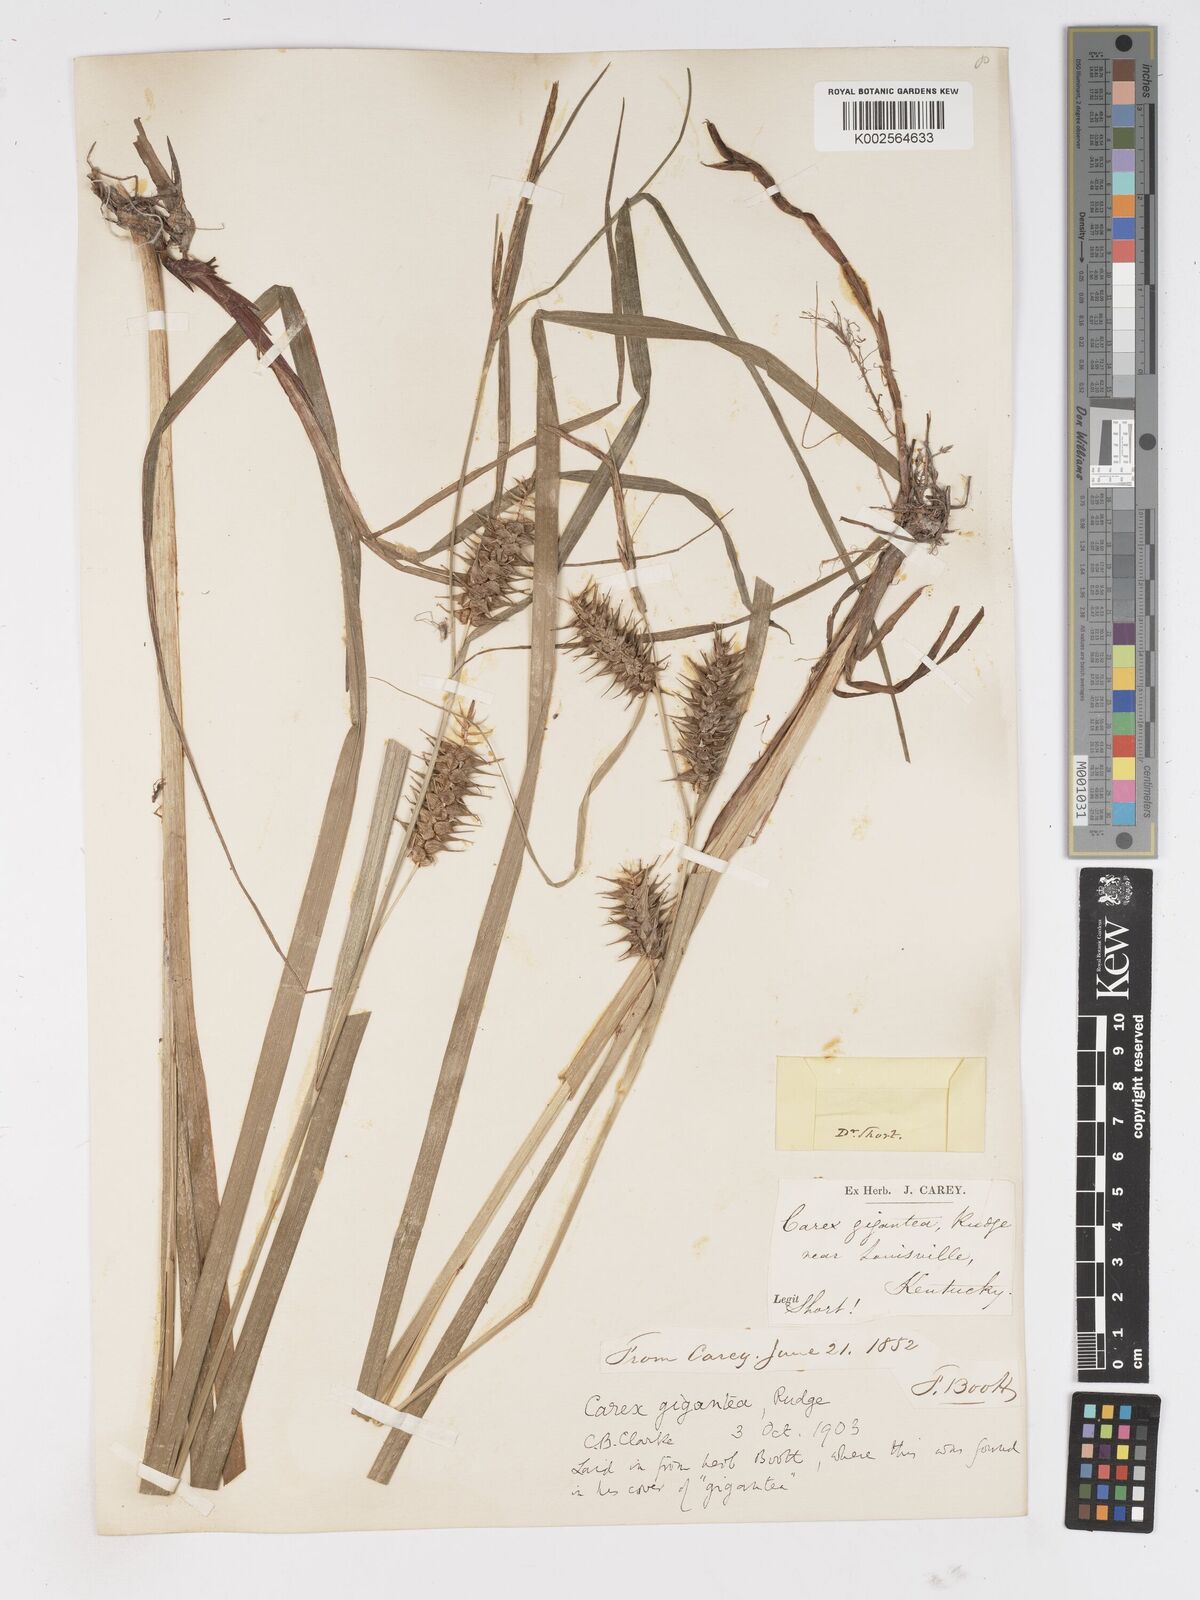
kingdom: Plantae
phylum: Tracheophyta
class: Liliopsida
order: Poales
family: Cyperaceae
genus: Carex
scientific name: Carex gigantea
